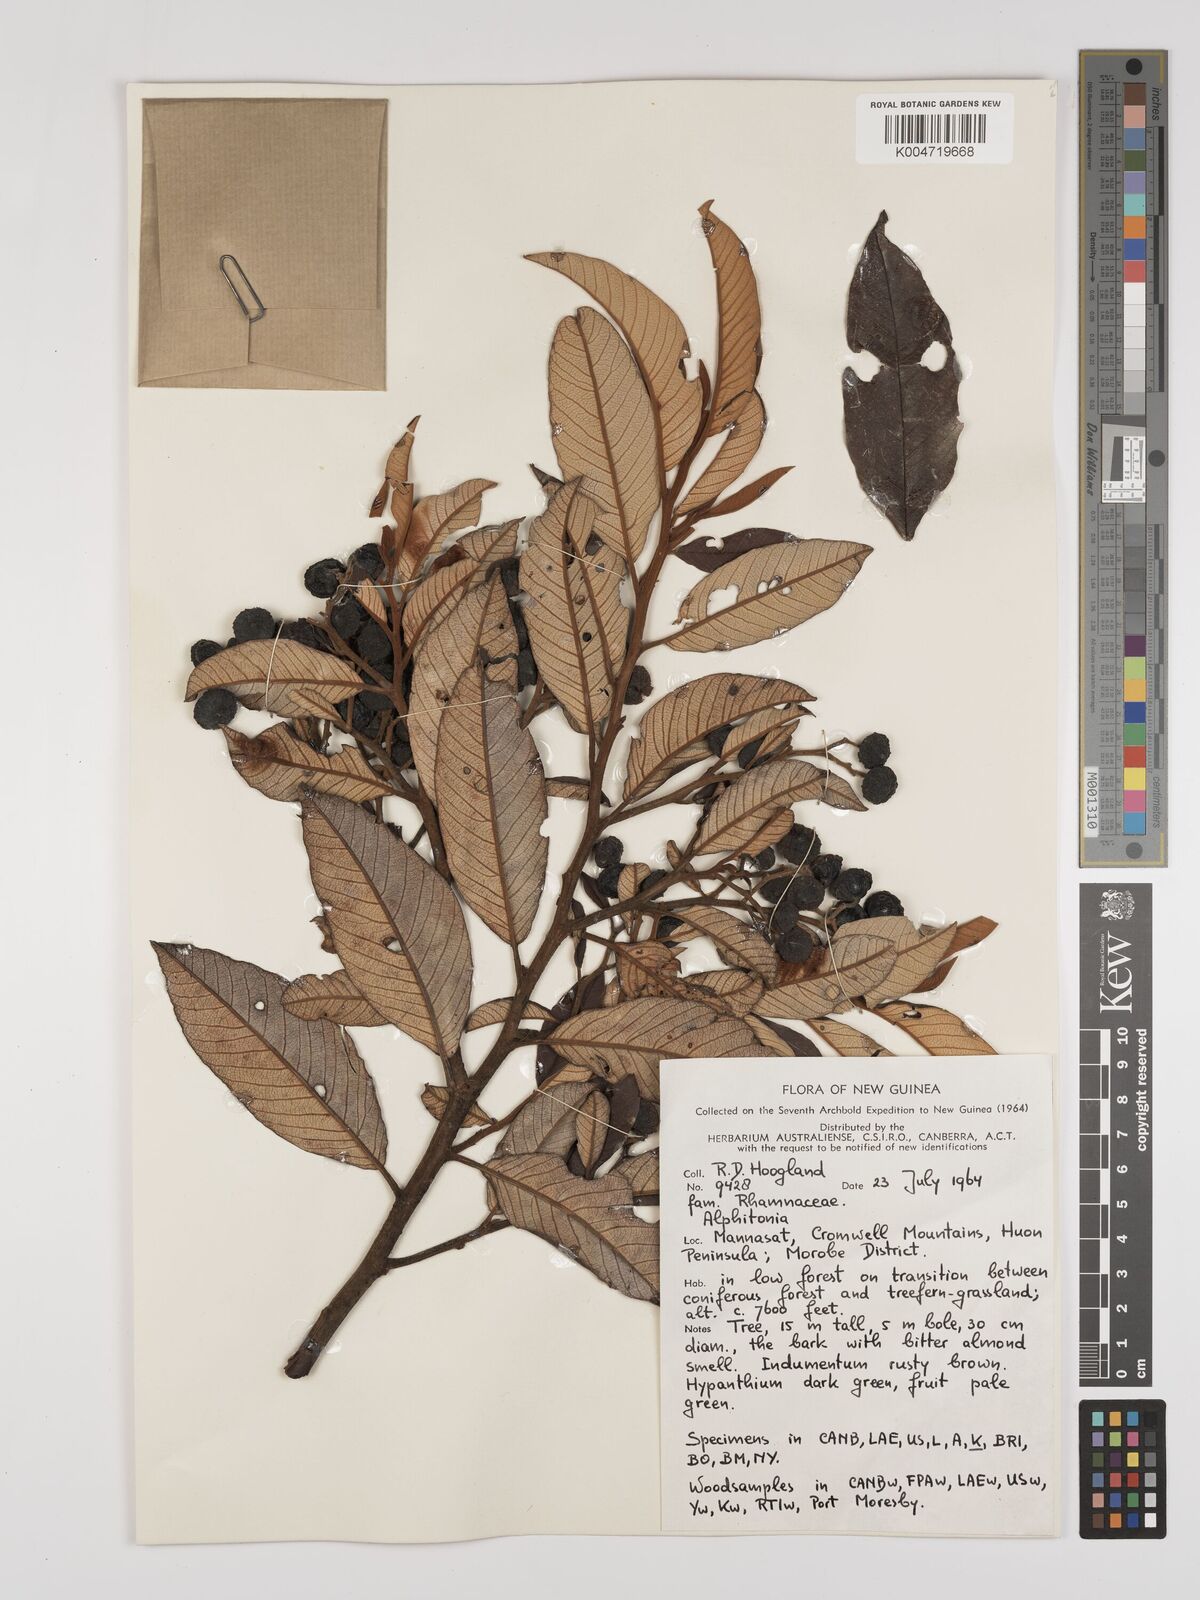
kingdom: Plantae
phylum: Tracheophyta
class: Magnoliopsida
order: Rosales
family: Rhamnaceae
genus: Alphitonia
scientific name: Alphitonia
